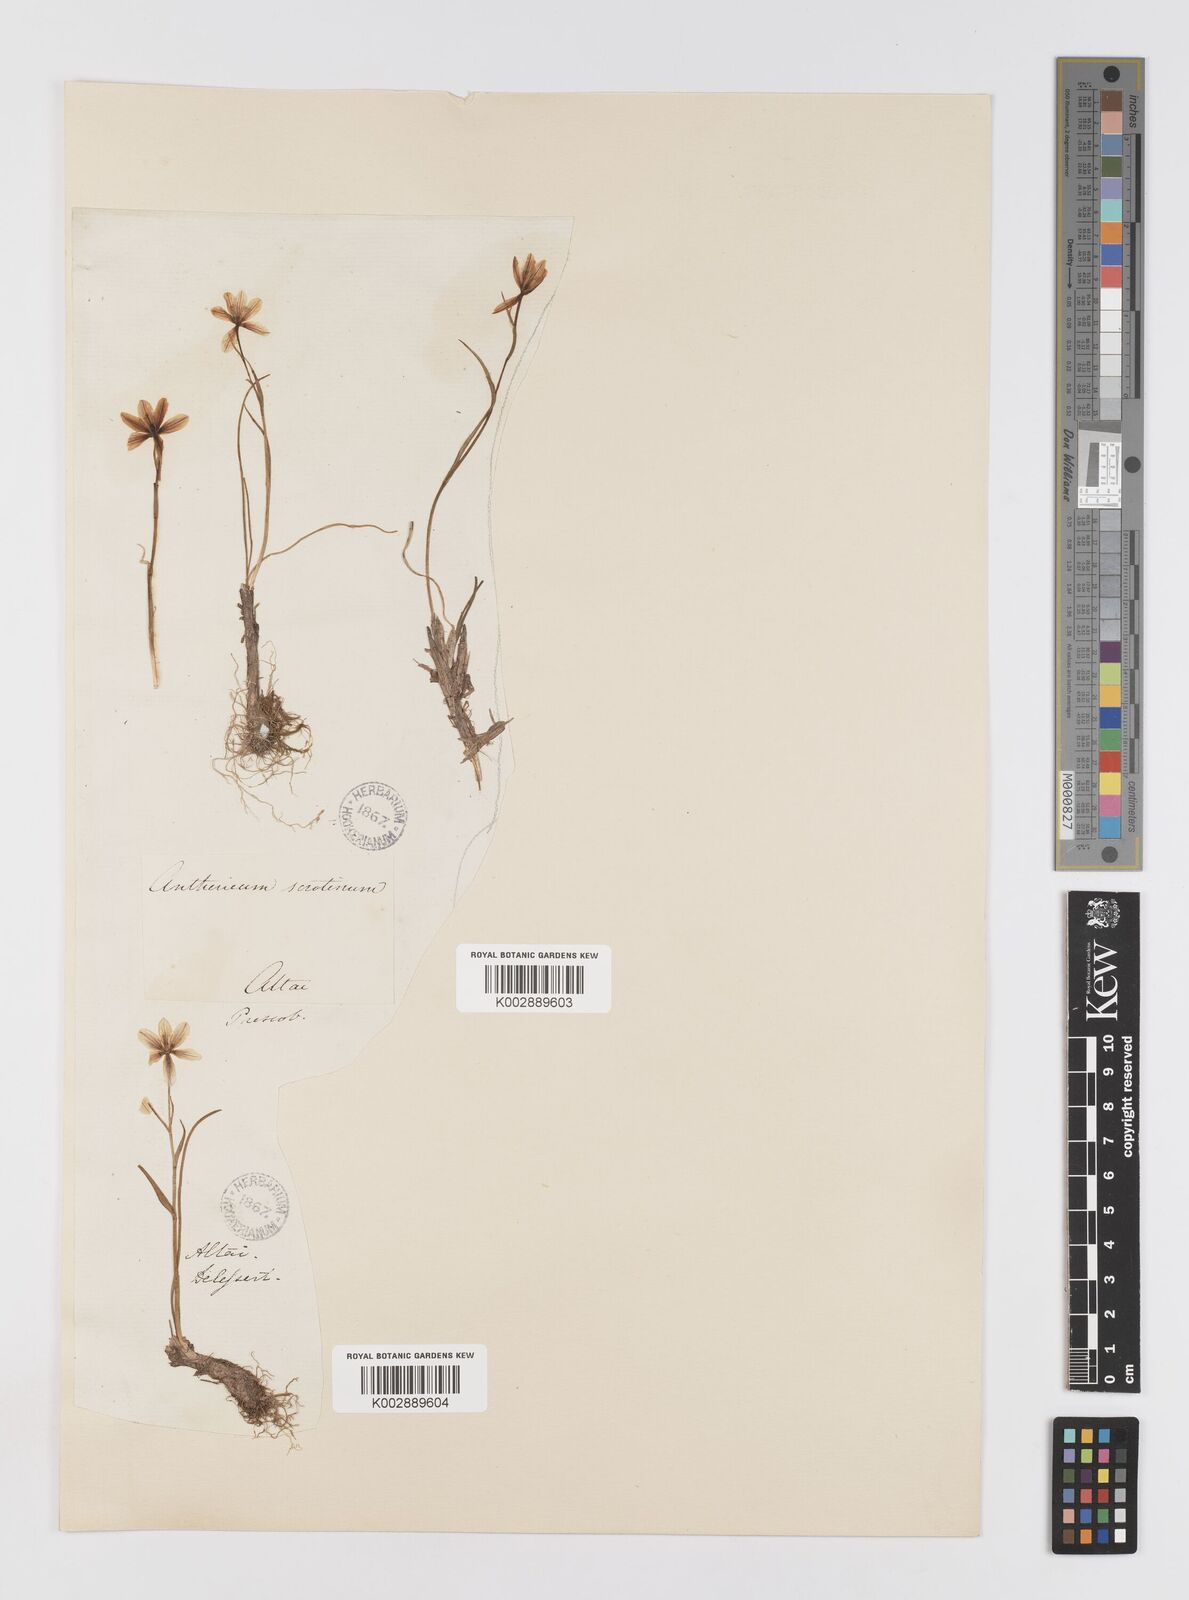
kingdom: Plantae
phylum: Tracheophyta
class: Liliopsida
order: Liliales
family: Liliaceae
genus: Gagea
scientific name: Gagea serotina
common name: Snowdon lily
